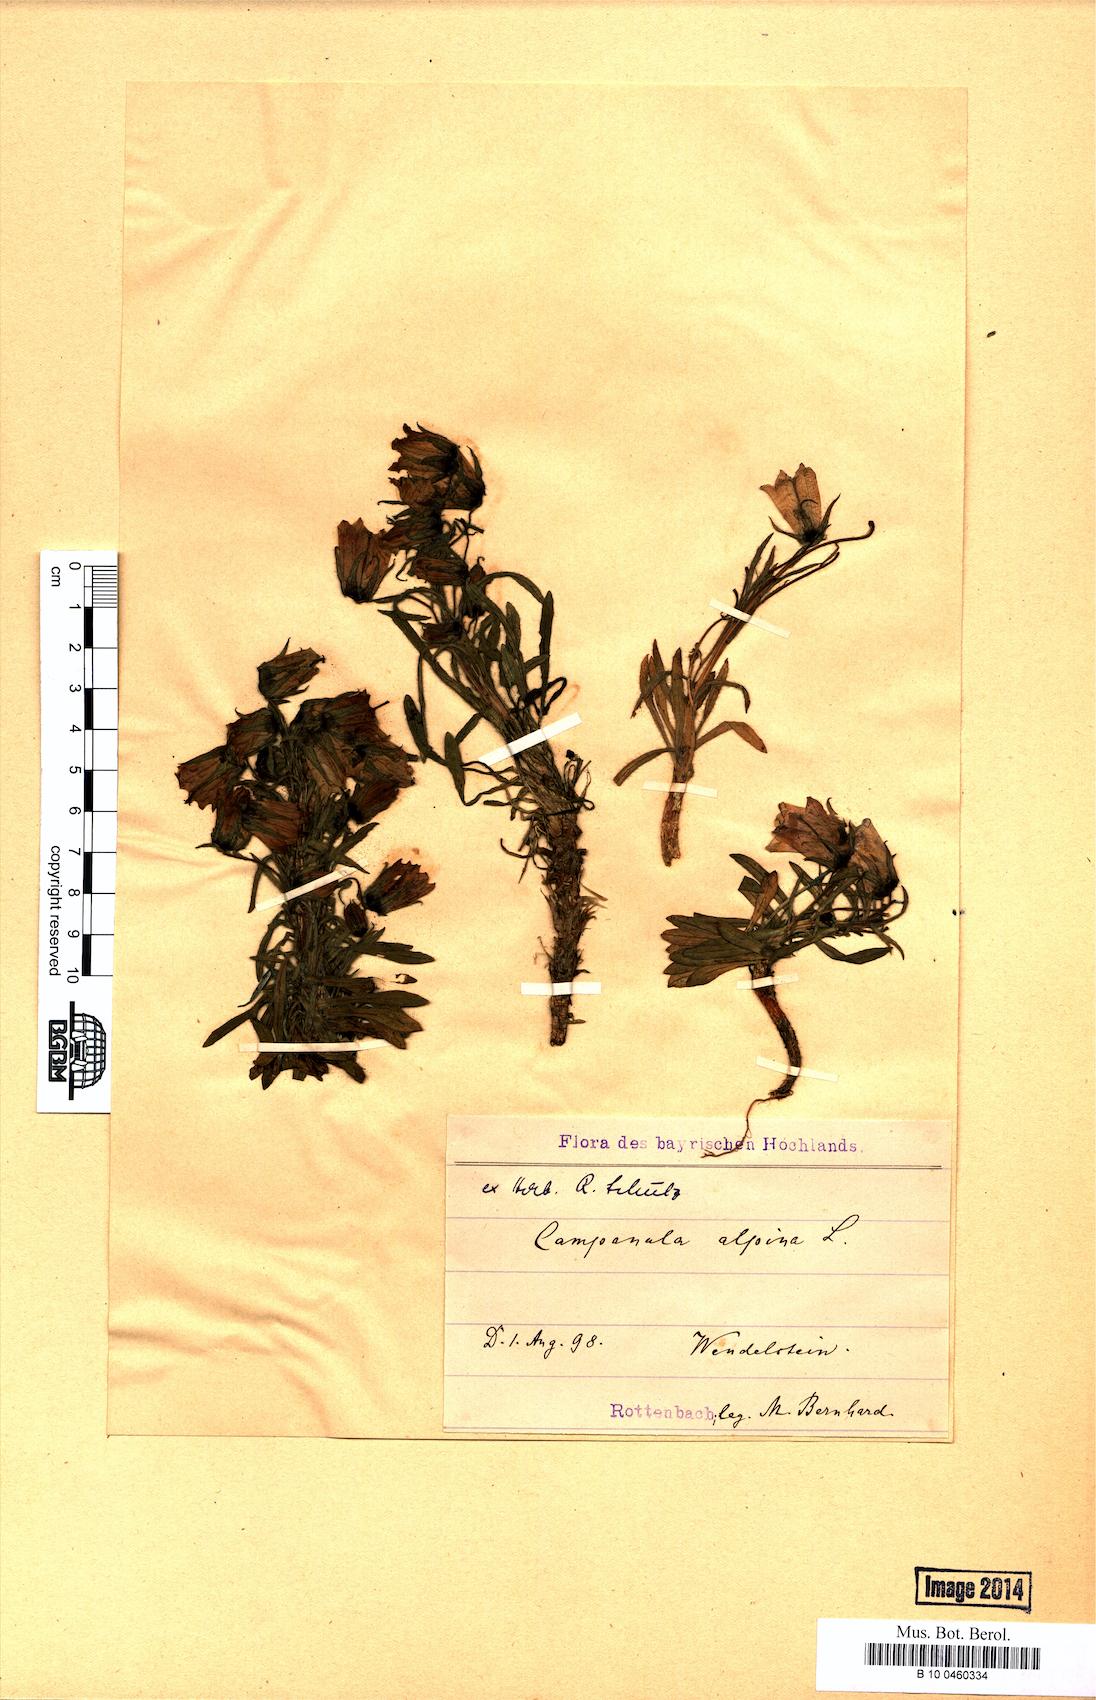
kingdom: Plantae
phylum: Tracheophyta
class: Magnoliopsida
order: Asterales
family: Campanulaceae
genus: Campanula
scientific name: Campanula alpina
